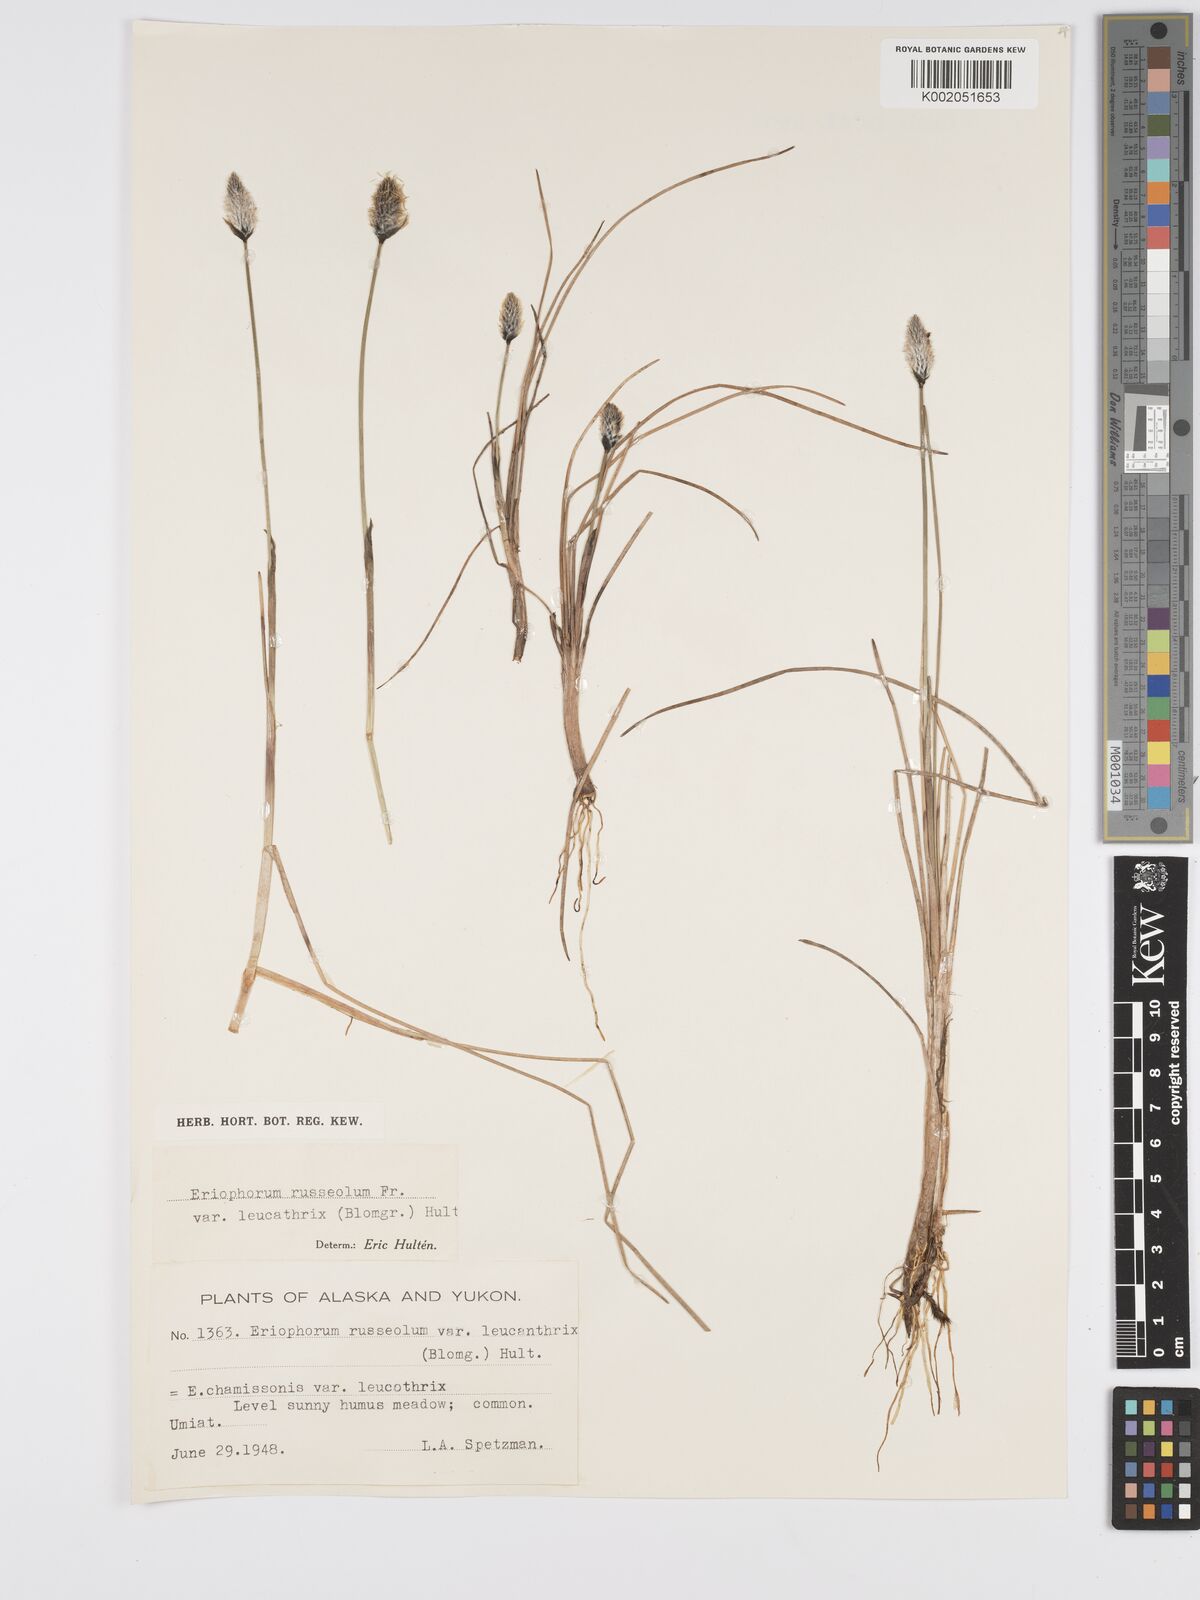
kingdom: Plantae
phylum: Tracheophyta
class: Liliopsida
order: Poales
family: Cyperaceae
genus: Eriophorum
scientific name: Eriophorum chamissonis
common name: Chamisso's cottongrass
